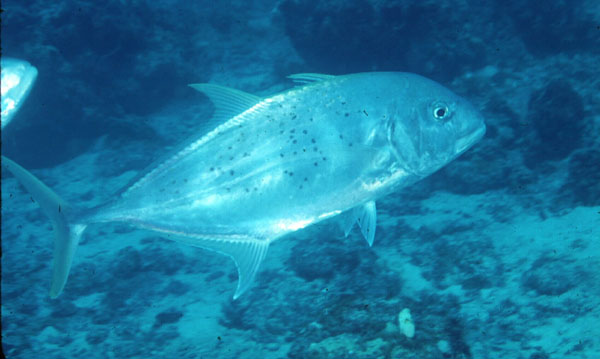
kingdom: Animalia
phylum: Chordata
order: Perciformes
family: Carangidae
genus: Carangoides
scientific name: Carangoides
